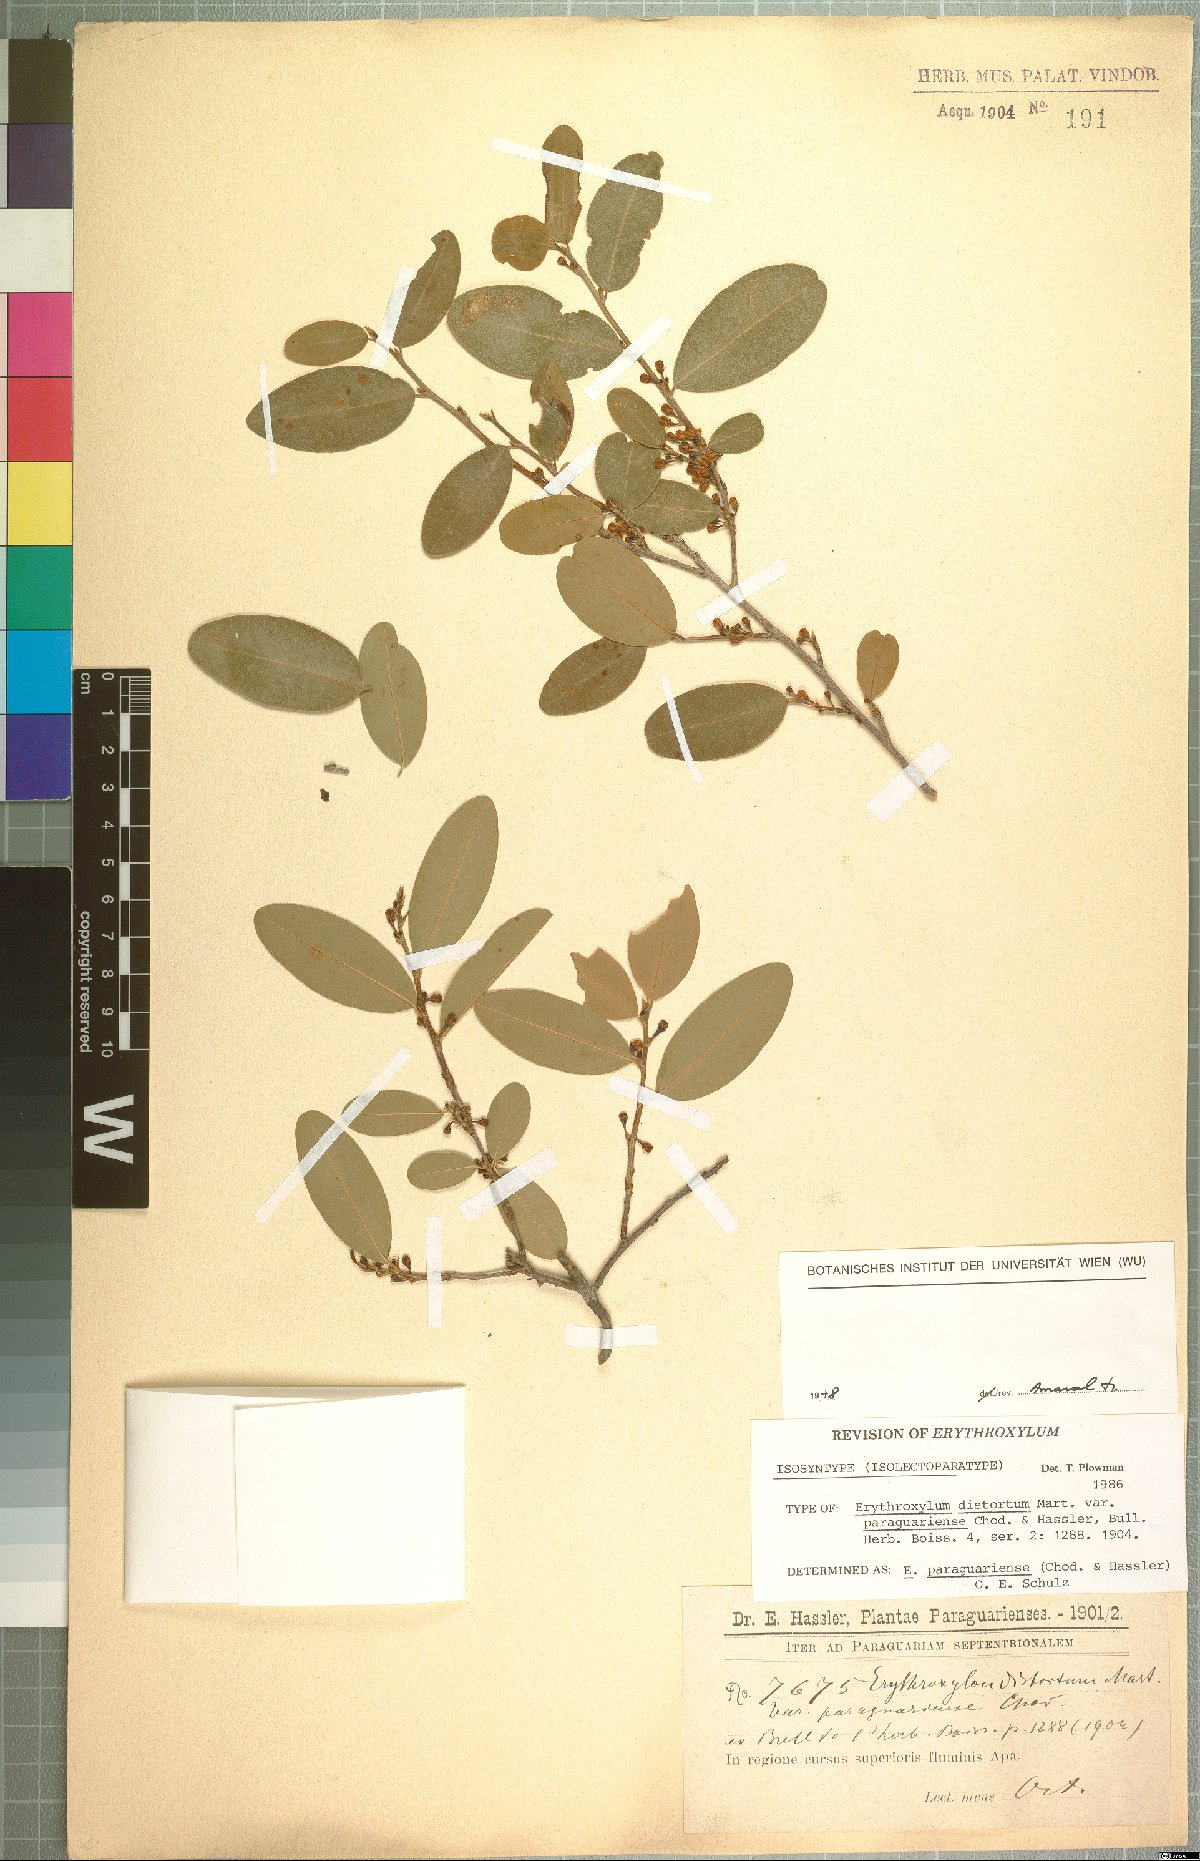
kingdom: Plantae
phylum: Tracheophyta
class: Magnoliopsida
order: Malpighiales
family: Erythroxylaceae
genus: Erythroxylum
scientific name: Erythroxylum paraguariense
